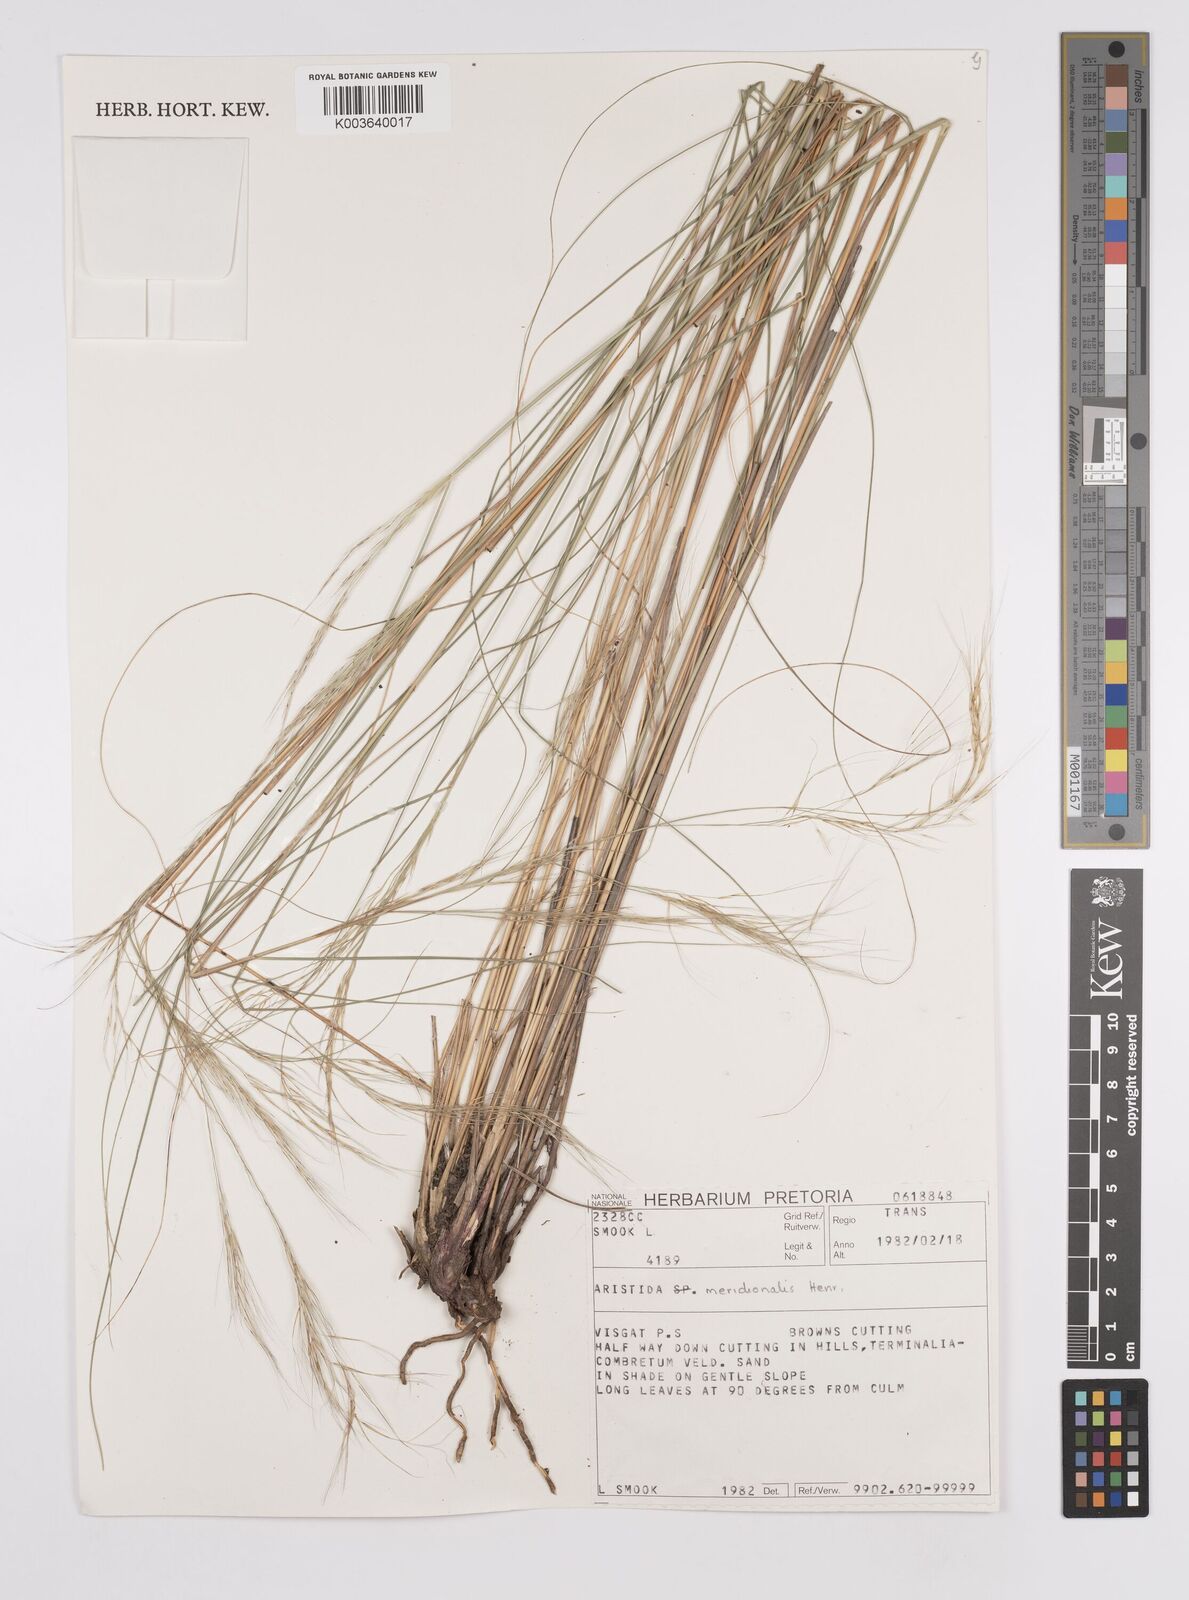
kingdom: Plantae
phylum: Tracheophyta
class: Liliopsida
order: Poales
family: Poaceae
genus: Aristida
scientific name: Aristida meridionalis
